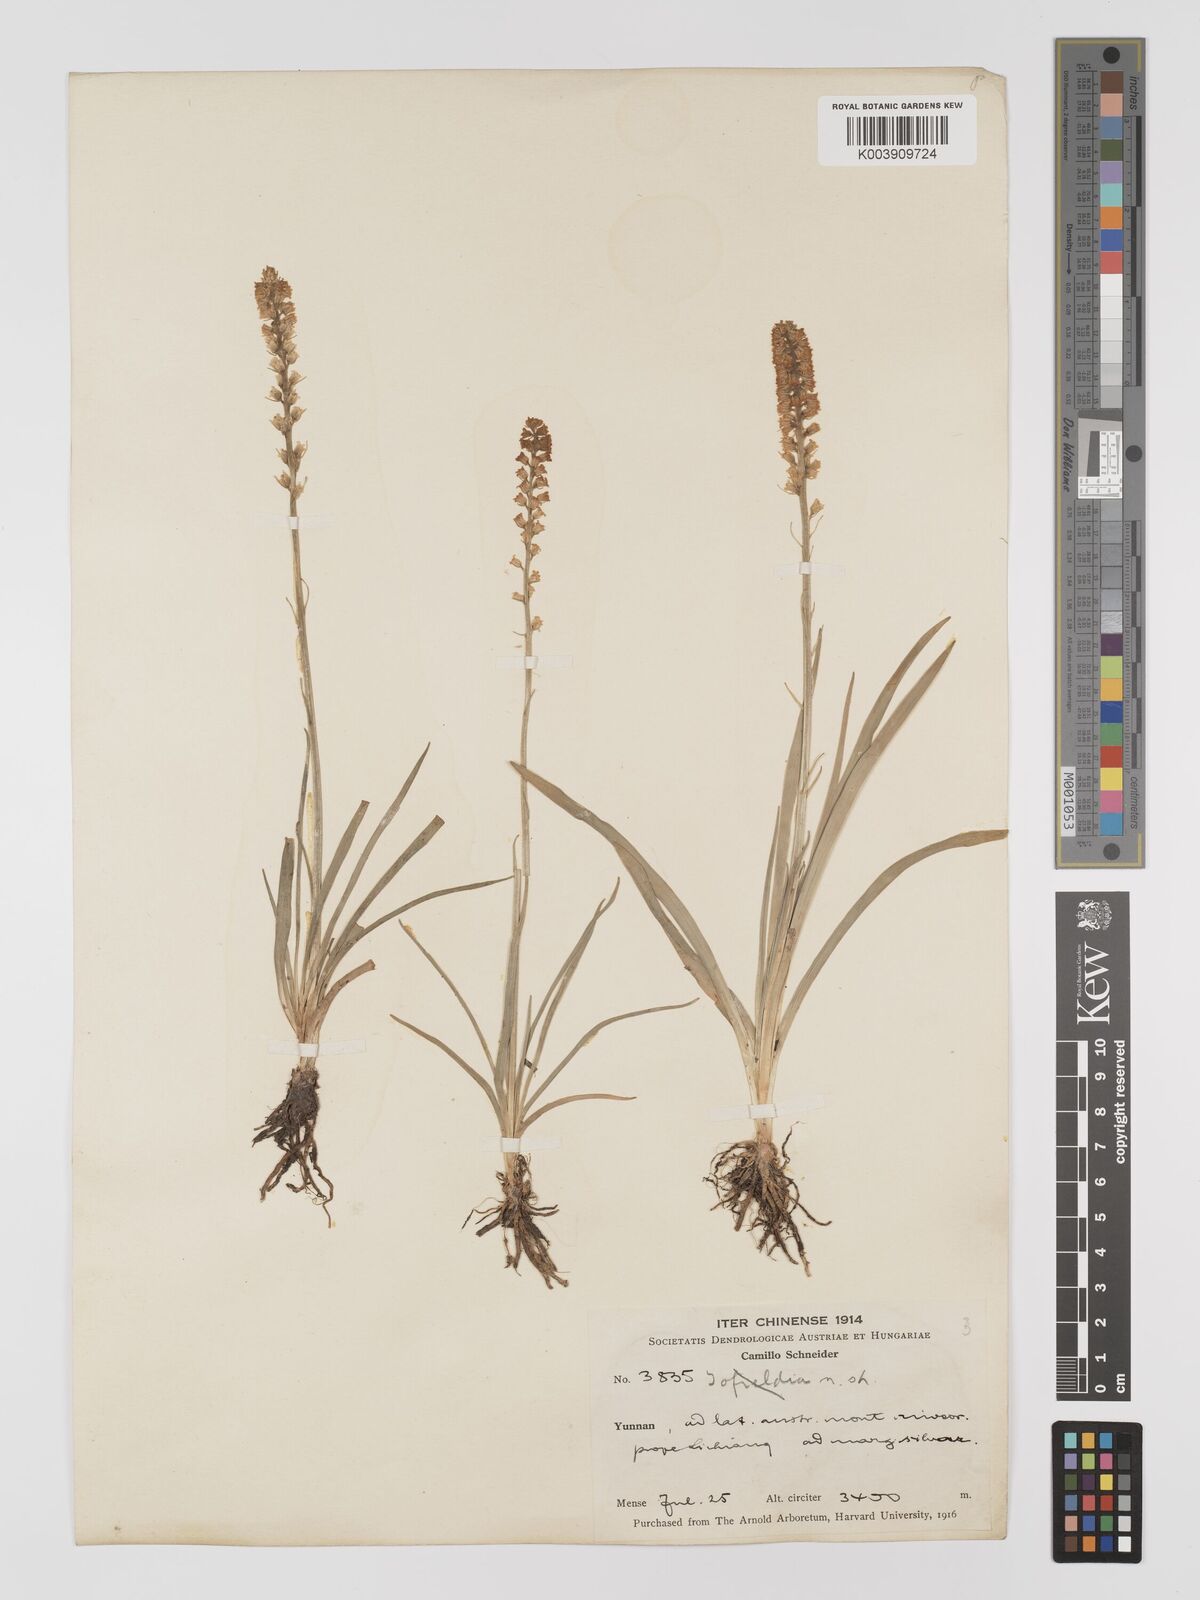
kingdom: Plantae
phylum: Tracheophyta
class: Liliopsida
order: Dioscoreales
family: Nartheciaceae
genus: Aletris
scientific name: Aletris pauciflora
